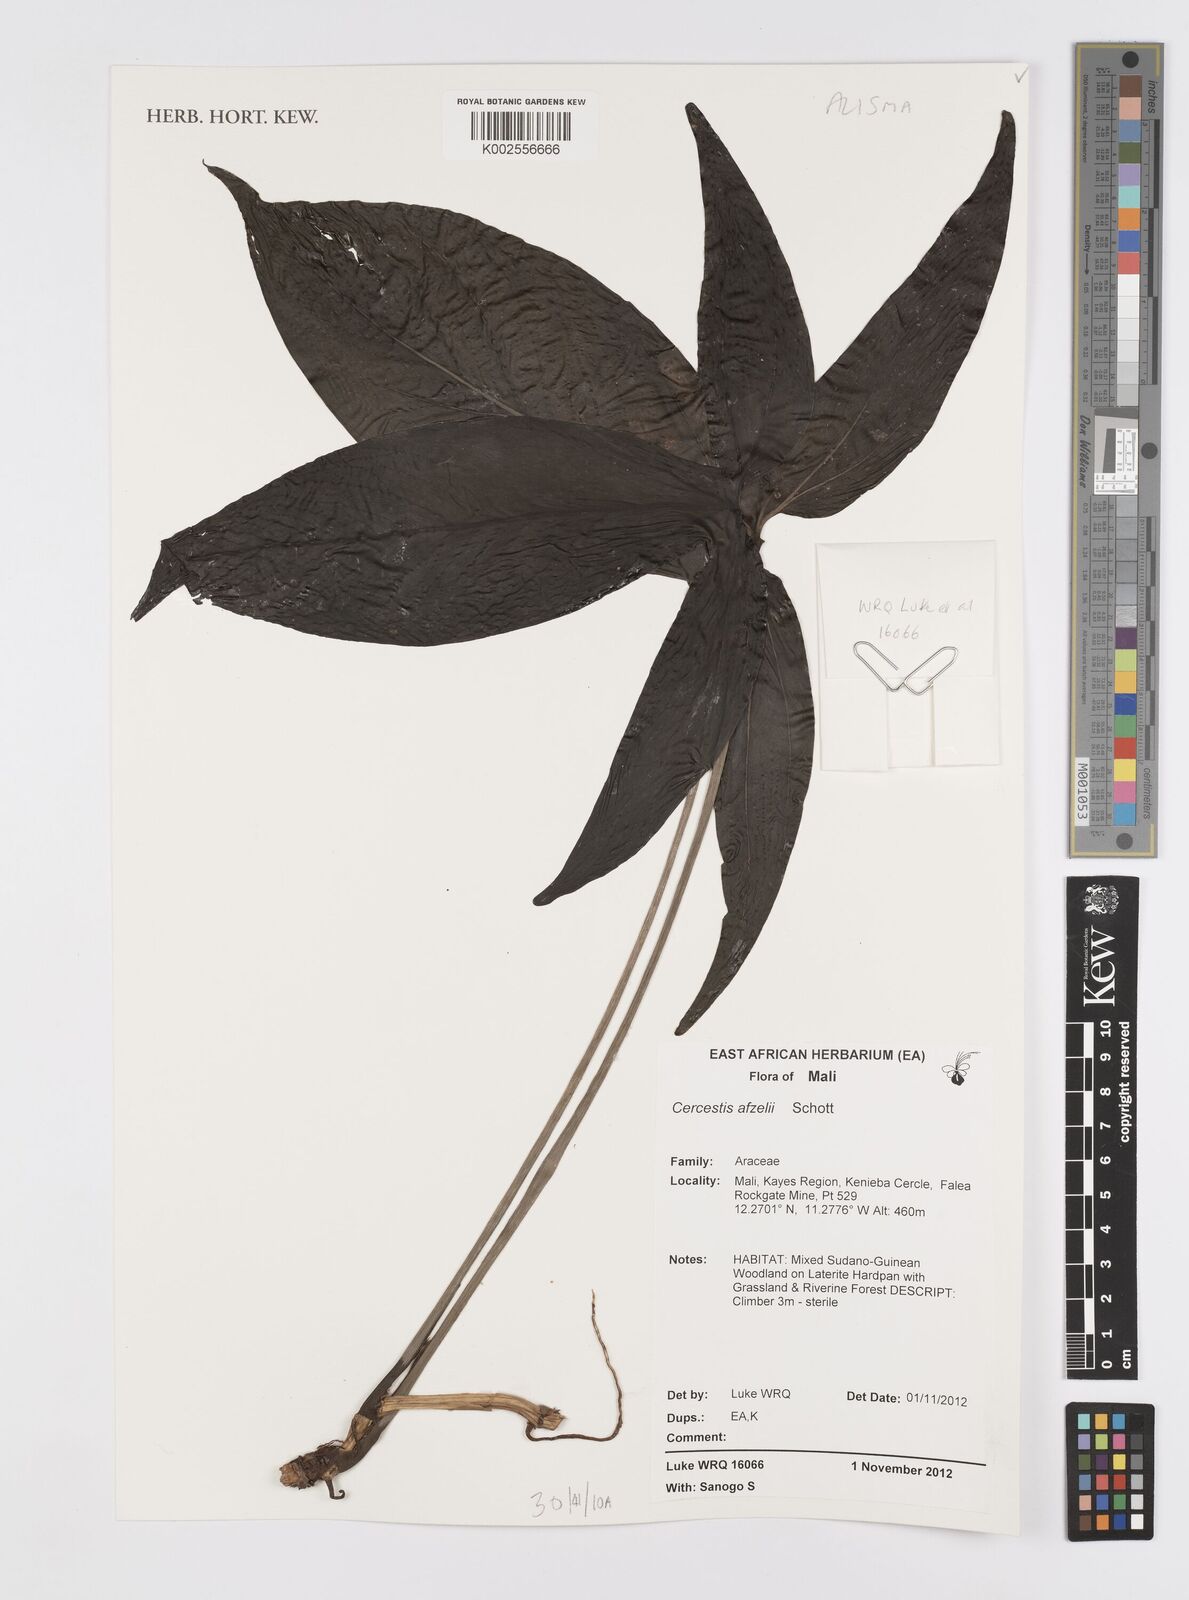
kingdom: Plantae
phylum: Tracheophyta
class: Liliopsida
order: Alismatales
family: Araceae
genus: Cercestis
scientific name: Cercestis afzelii
